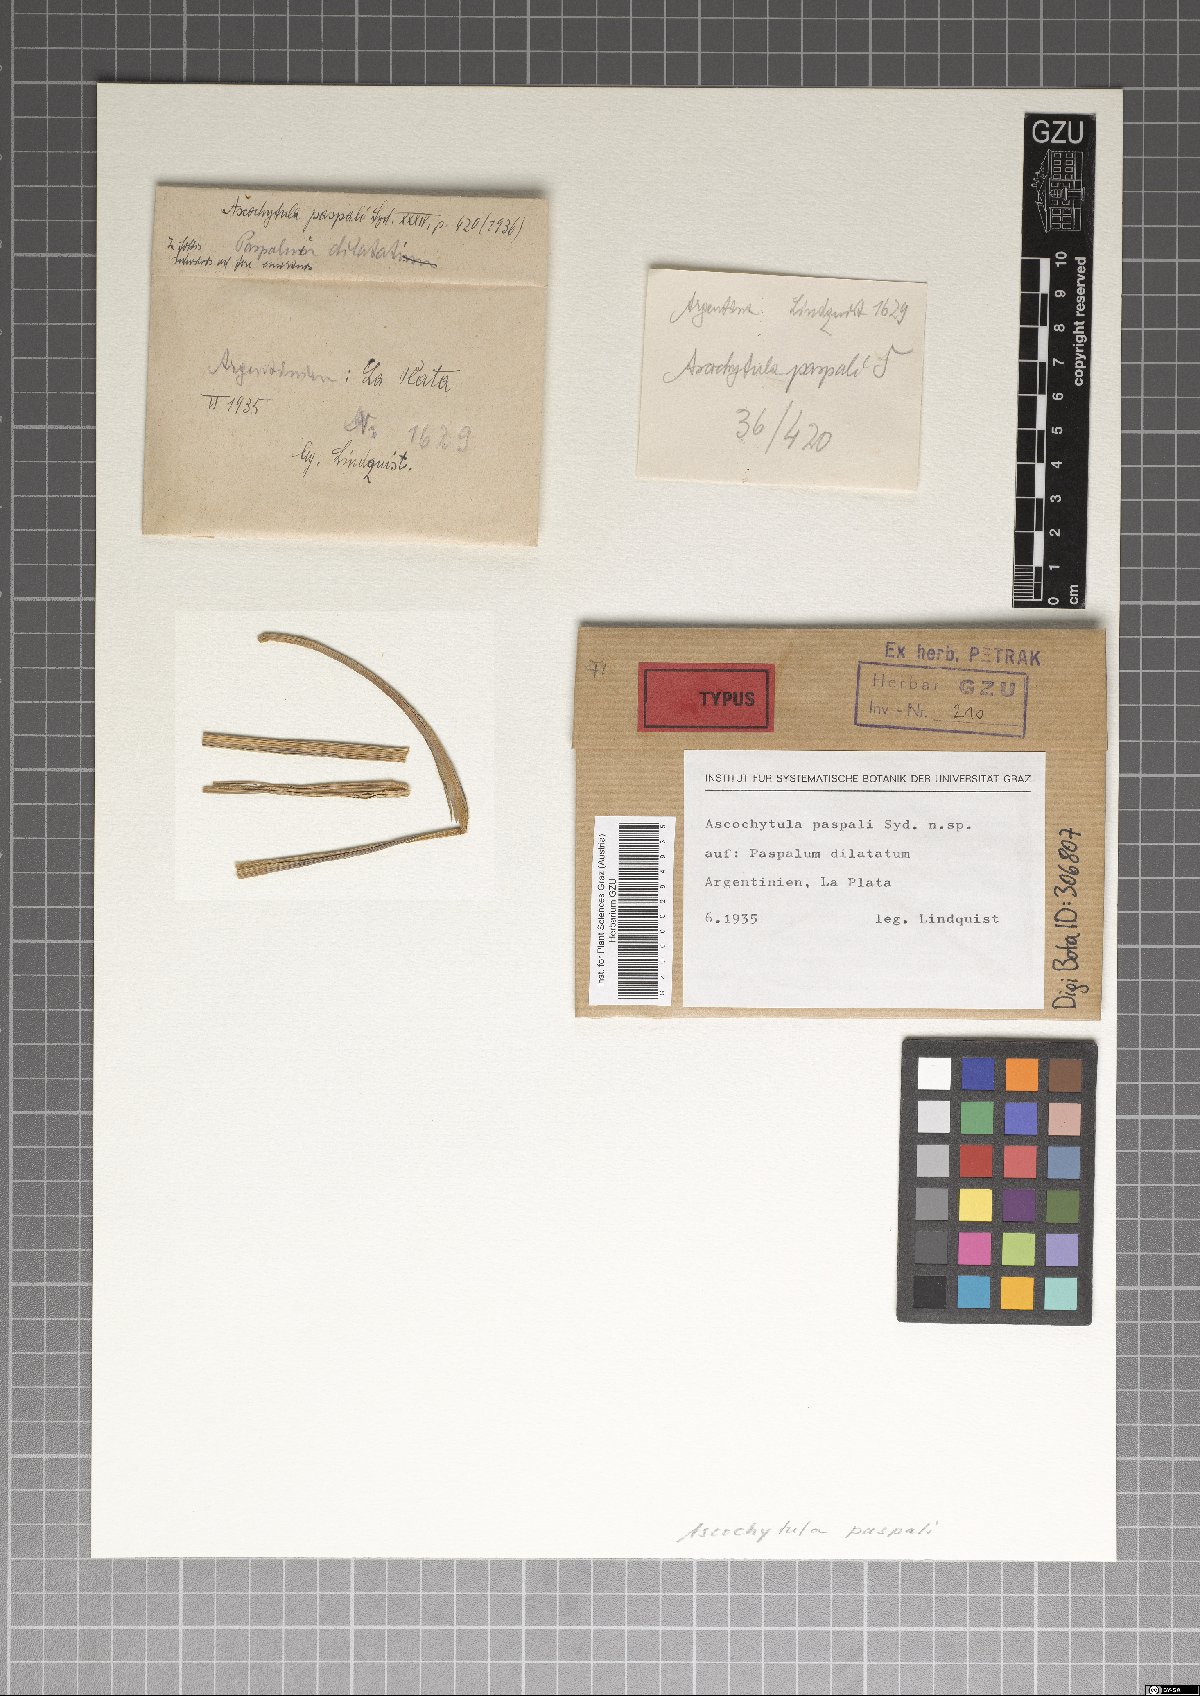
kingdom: Fungi
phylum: Ascomycota
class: Dothideomycetes
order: Pleosporales
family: Didymellaceae
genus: Ascochyta
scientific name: Ascochyta paspali
